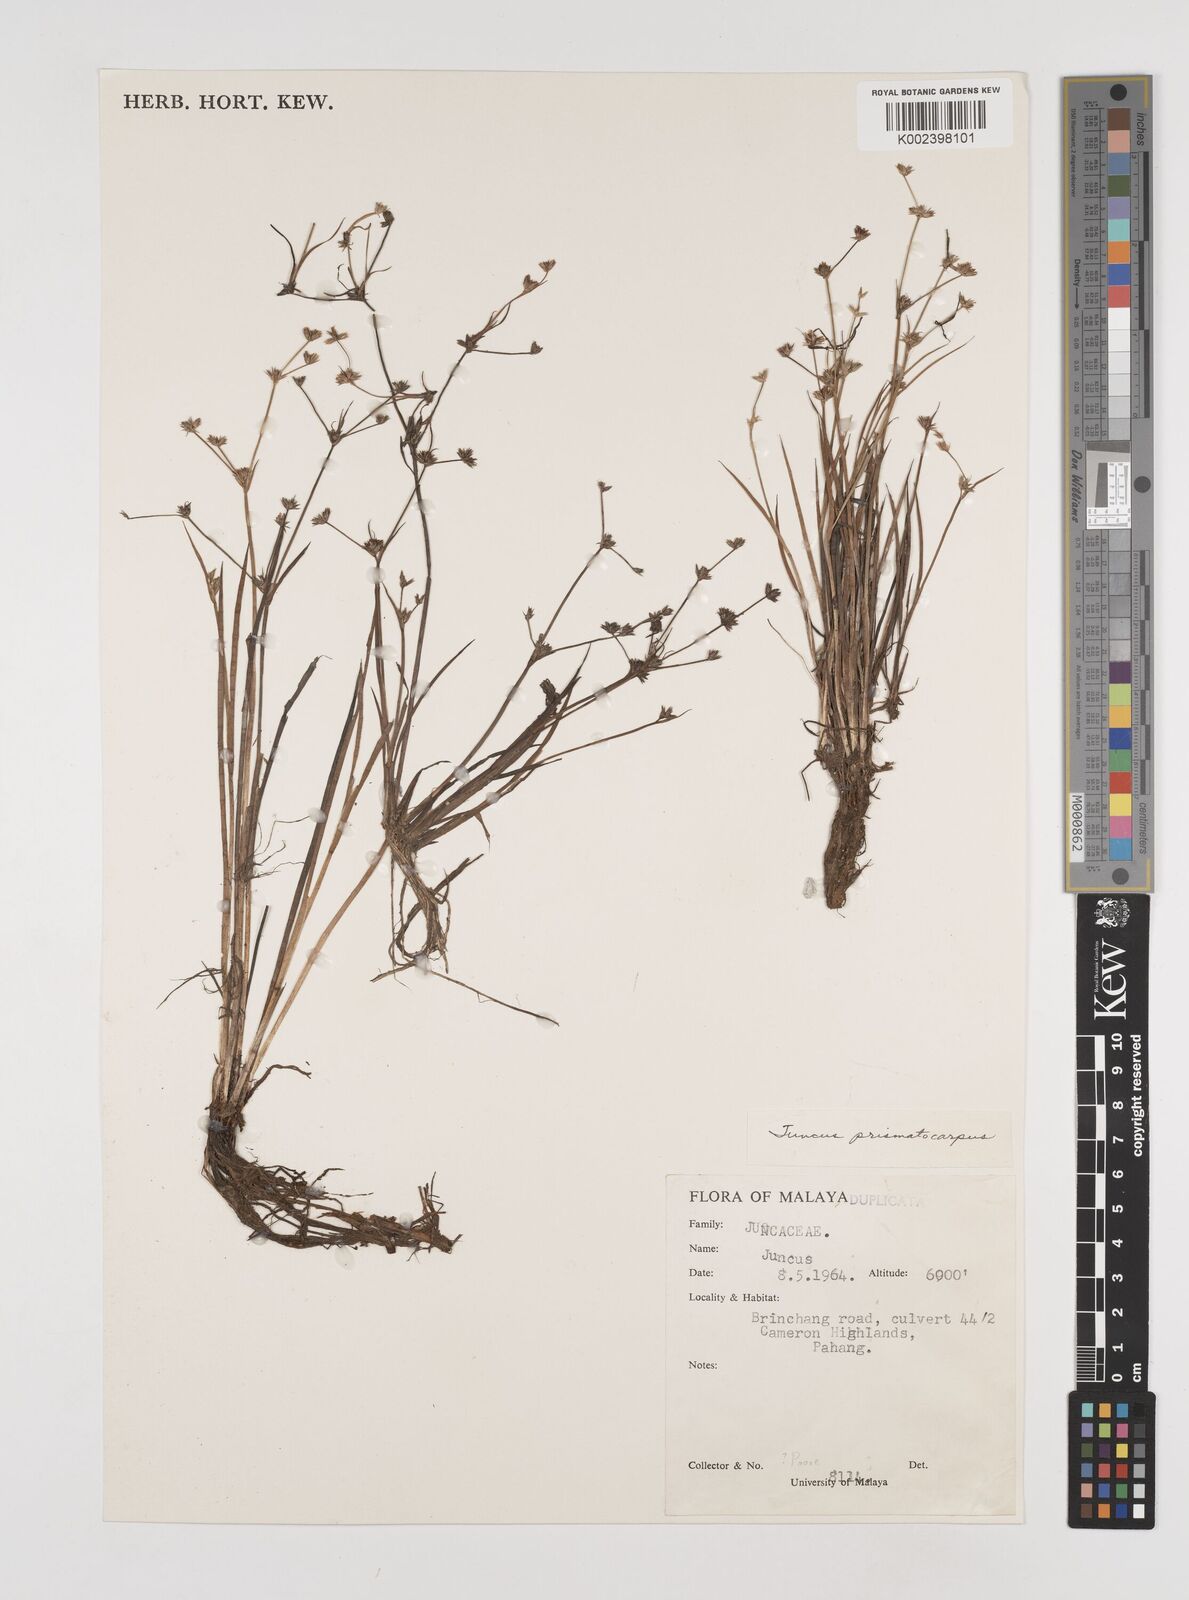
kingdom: Plantae
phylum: Tracheophyta
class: Liliopsida
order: Poales
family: Juncaceae
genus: Juncus
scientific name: Juncus prismatocarpus
